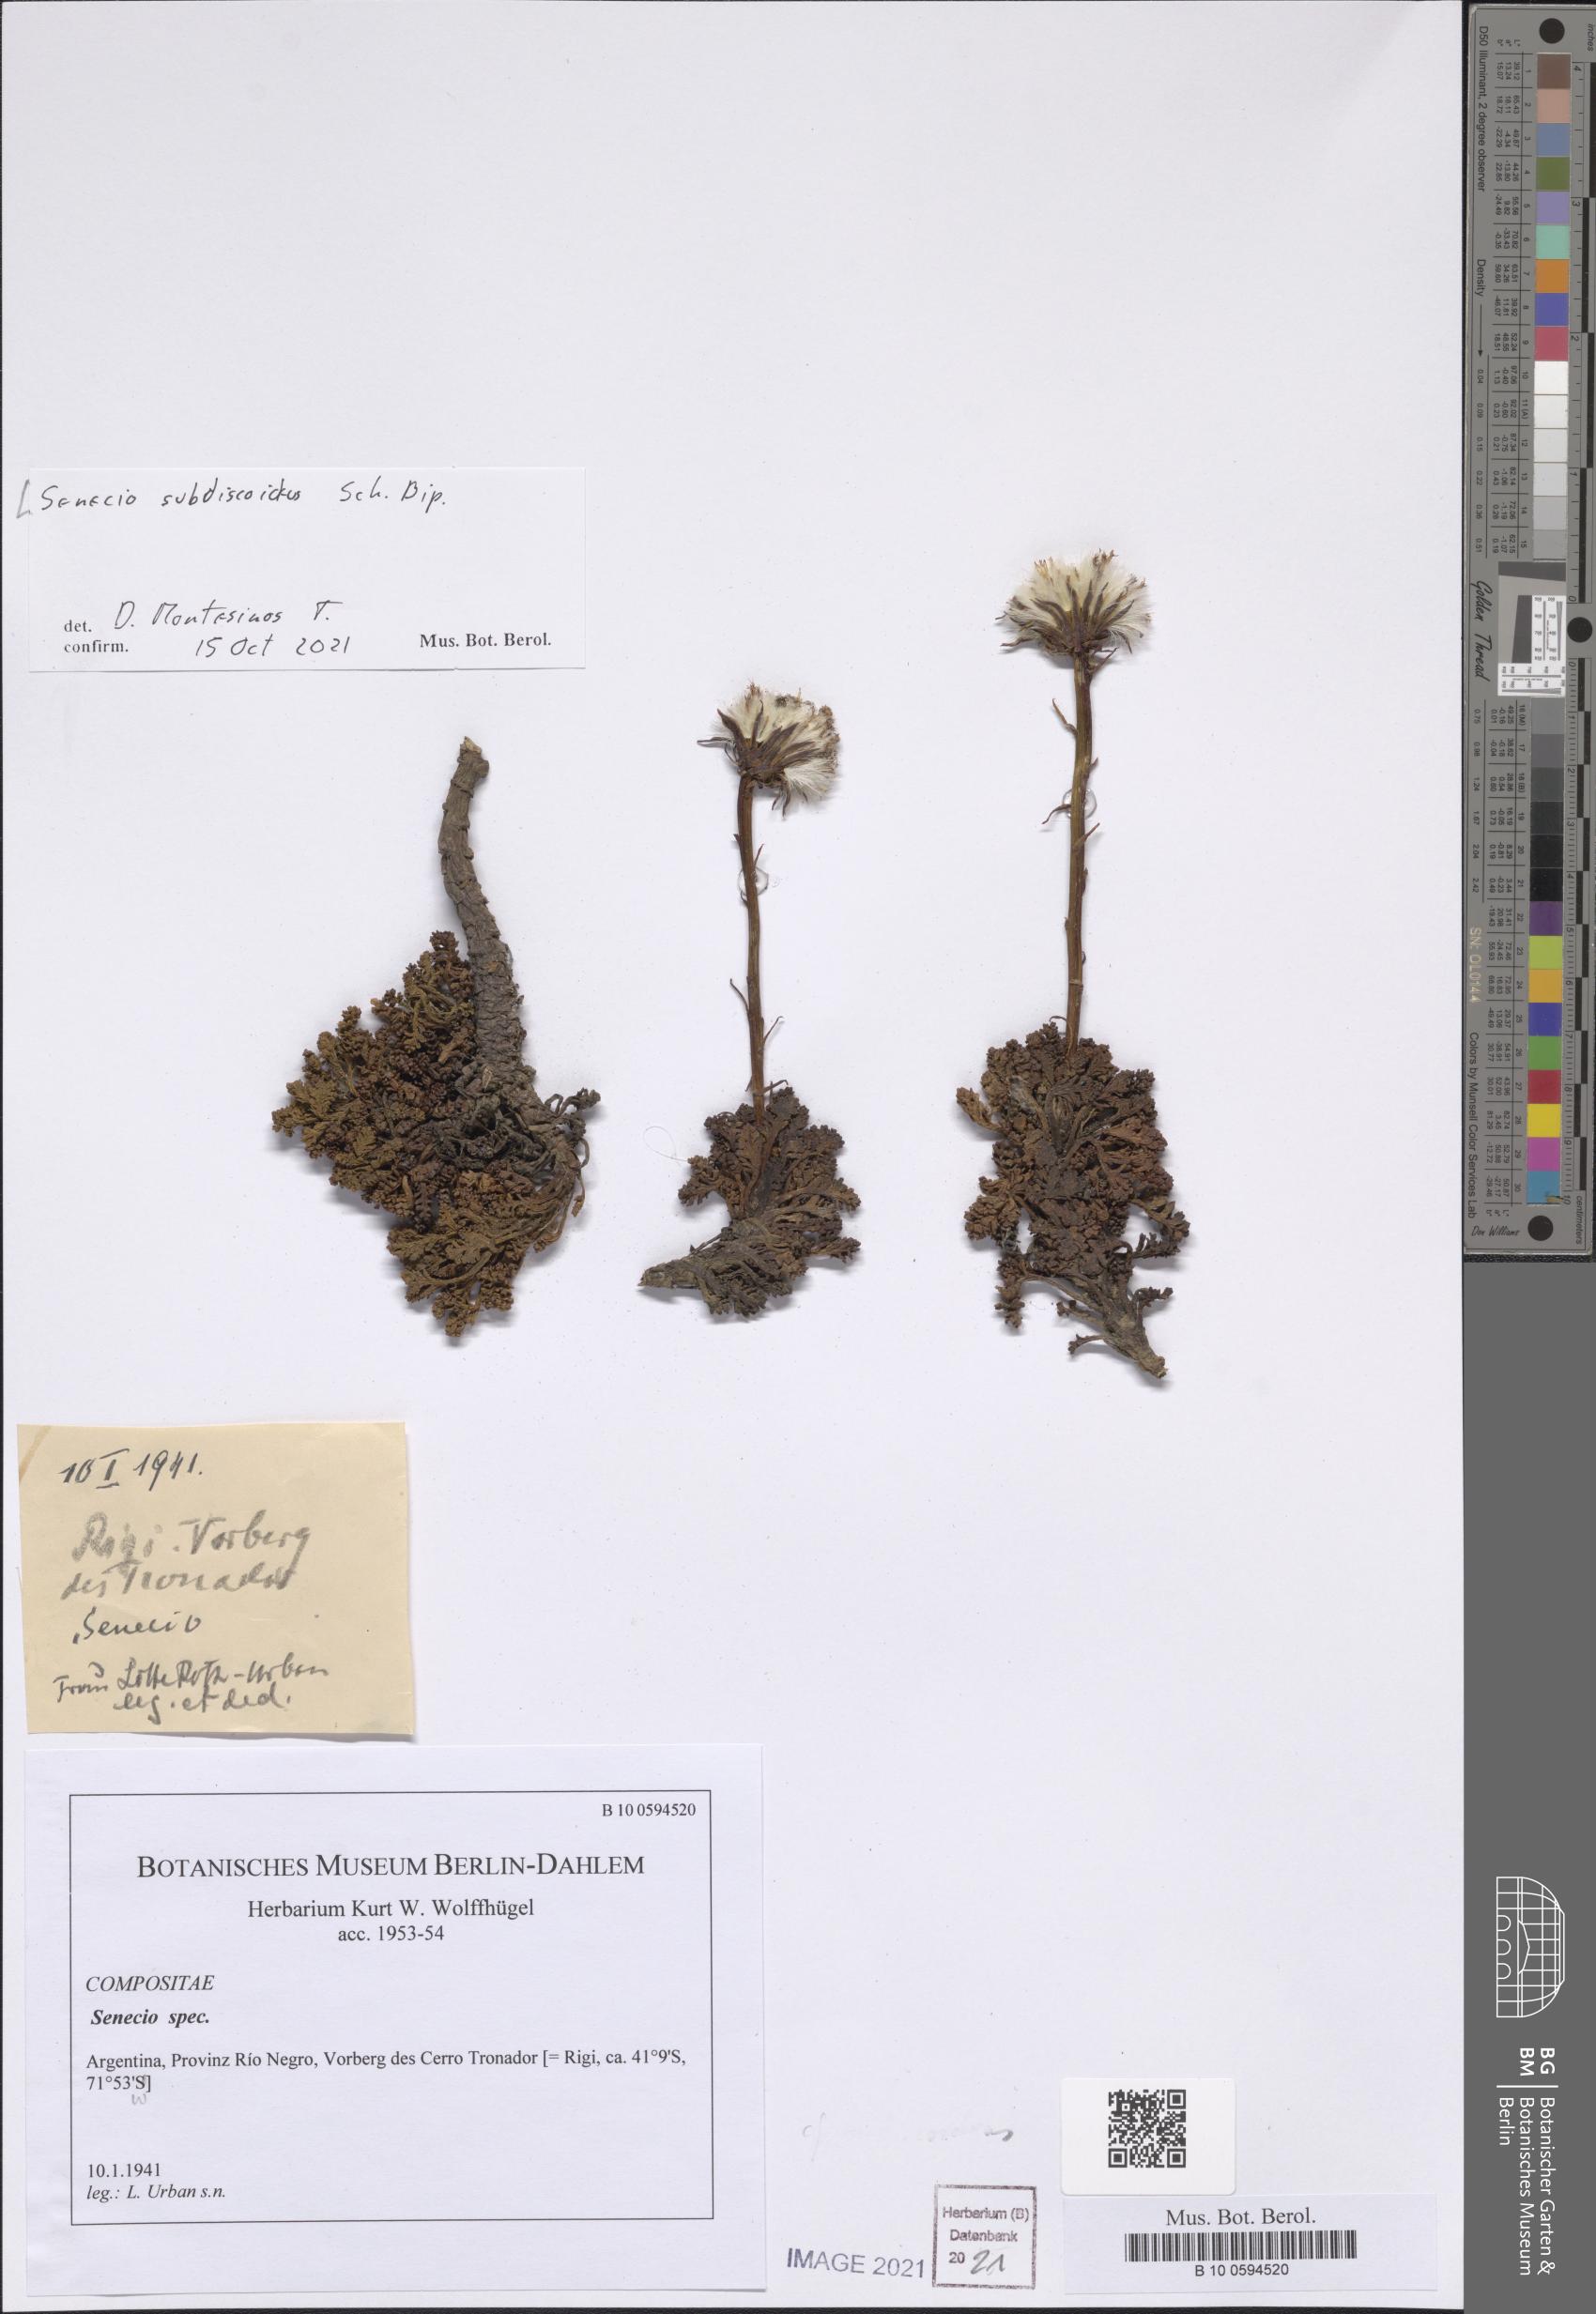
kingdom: Plantae
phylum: Tracheophyta
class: Magnoliopsida
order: Asterales
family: Asteraceae
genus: Senecio
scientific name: Senecio kingii
